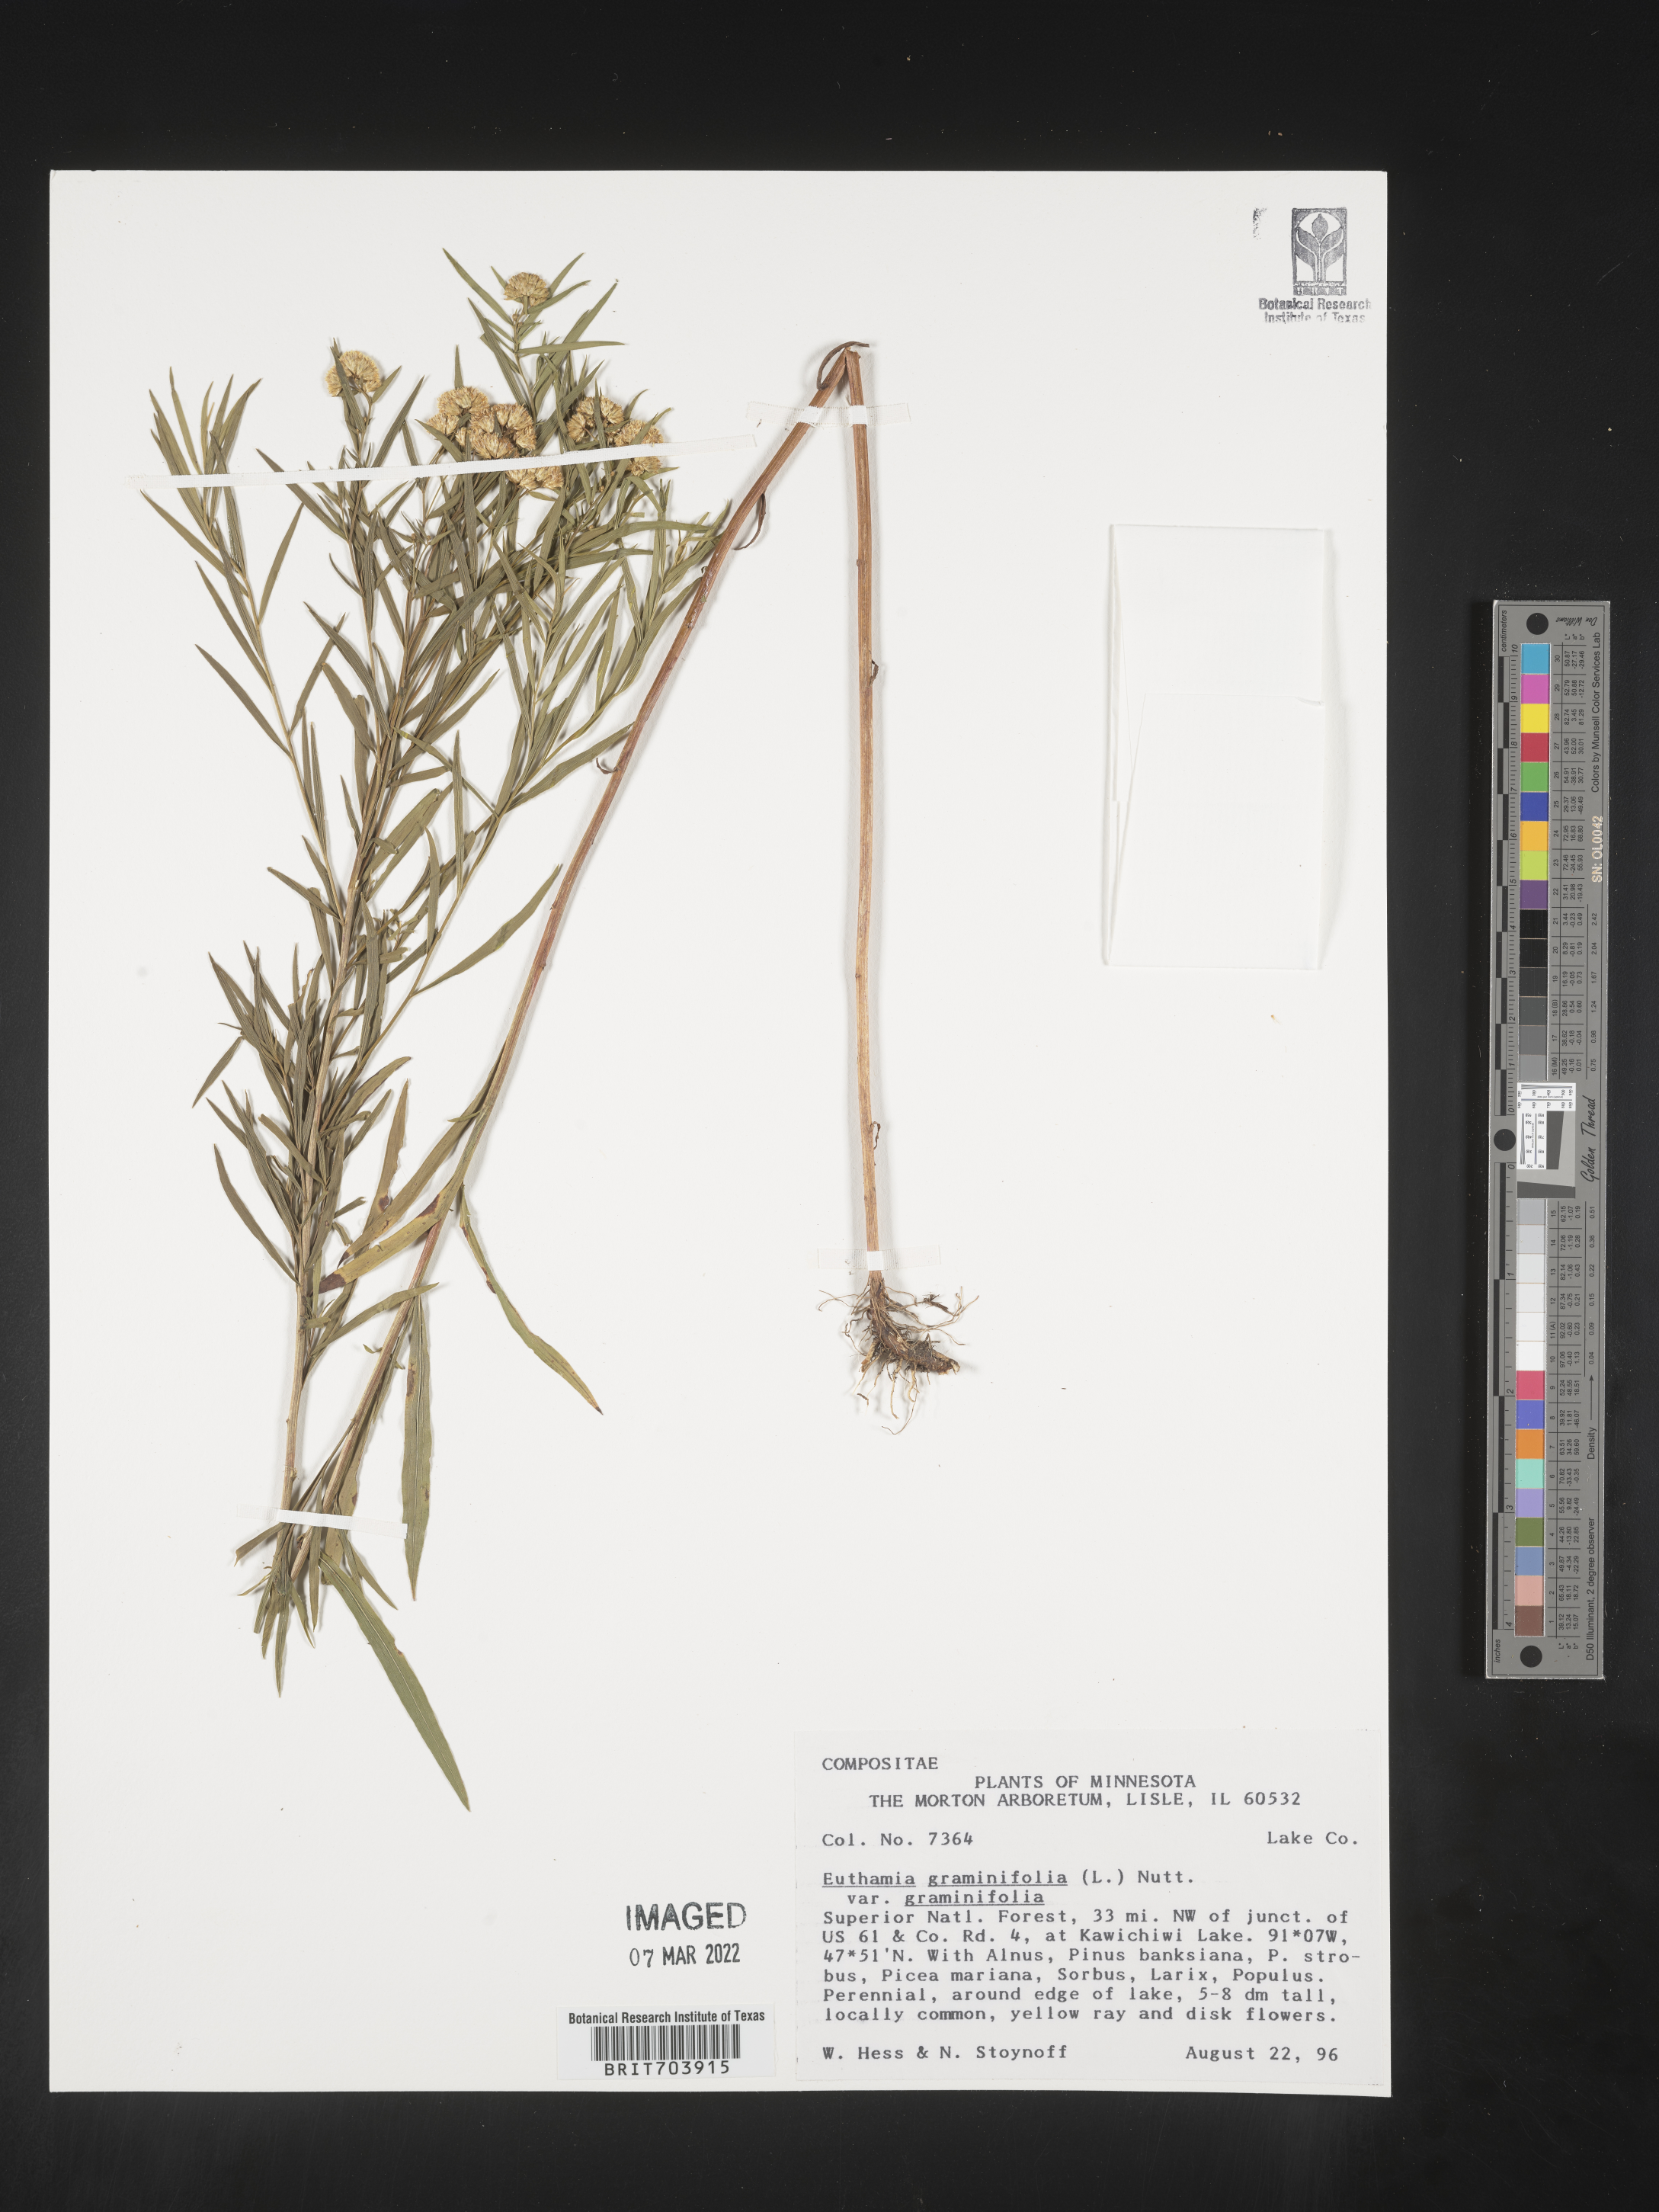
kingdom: Plantae
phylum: Tracheophyta
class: Magnoliopsida
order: Asterales
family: Asteraceae
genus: Euthamia
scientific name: Euthamia graminifolia
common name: Common goldentop
